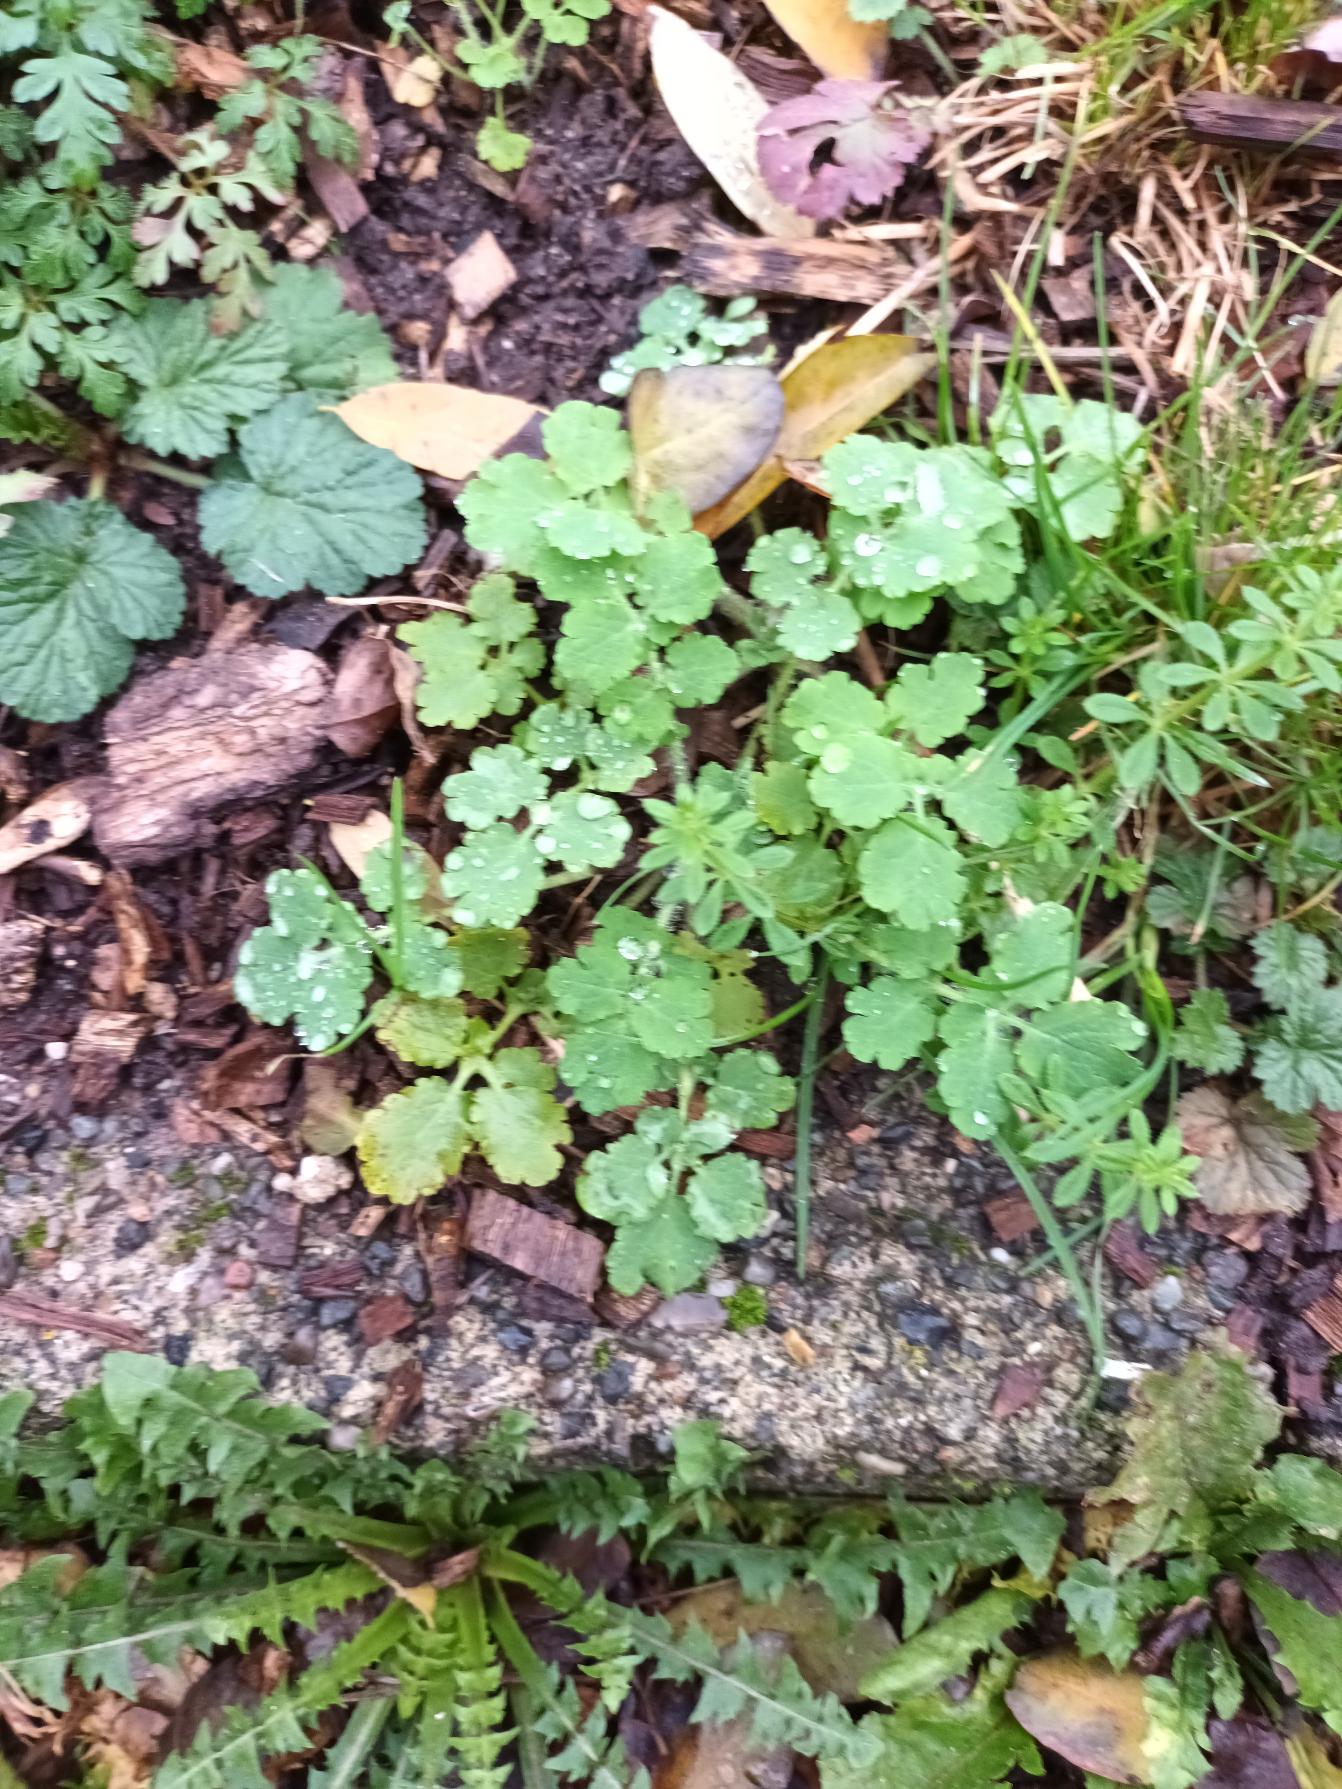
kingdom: Plantae
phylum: Tracheophyta
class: Magnoliopsida
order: Ranunculales
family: Papaveraceae
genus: Chelidonium
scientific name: Chelidonium majus
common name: Svaleurt
